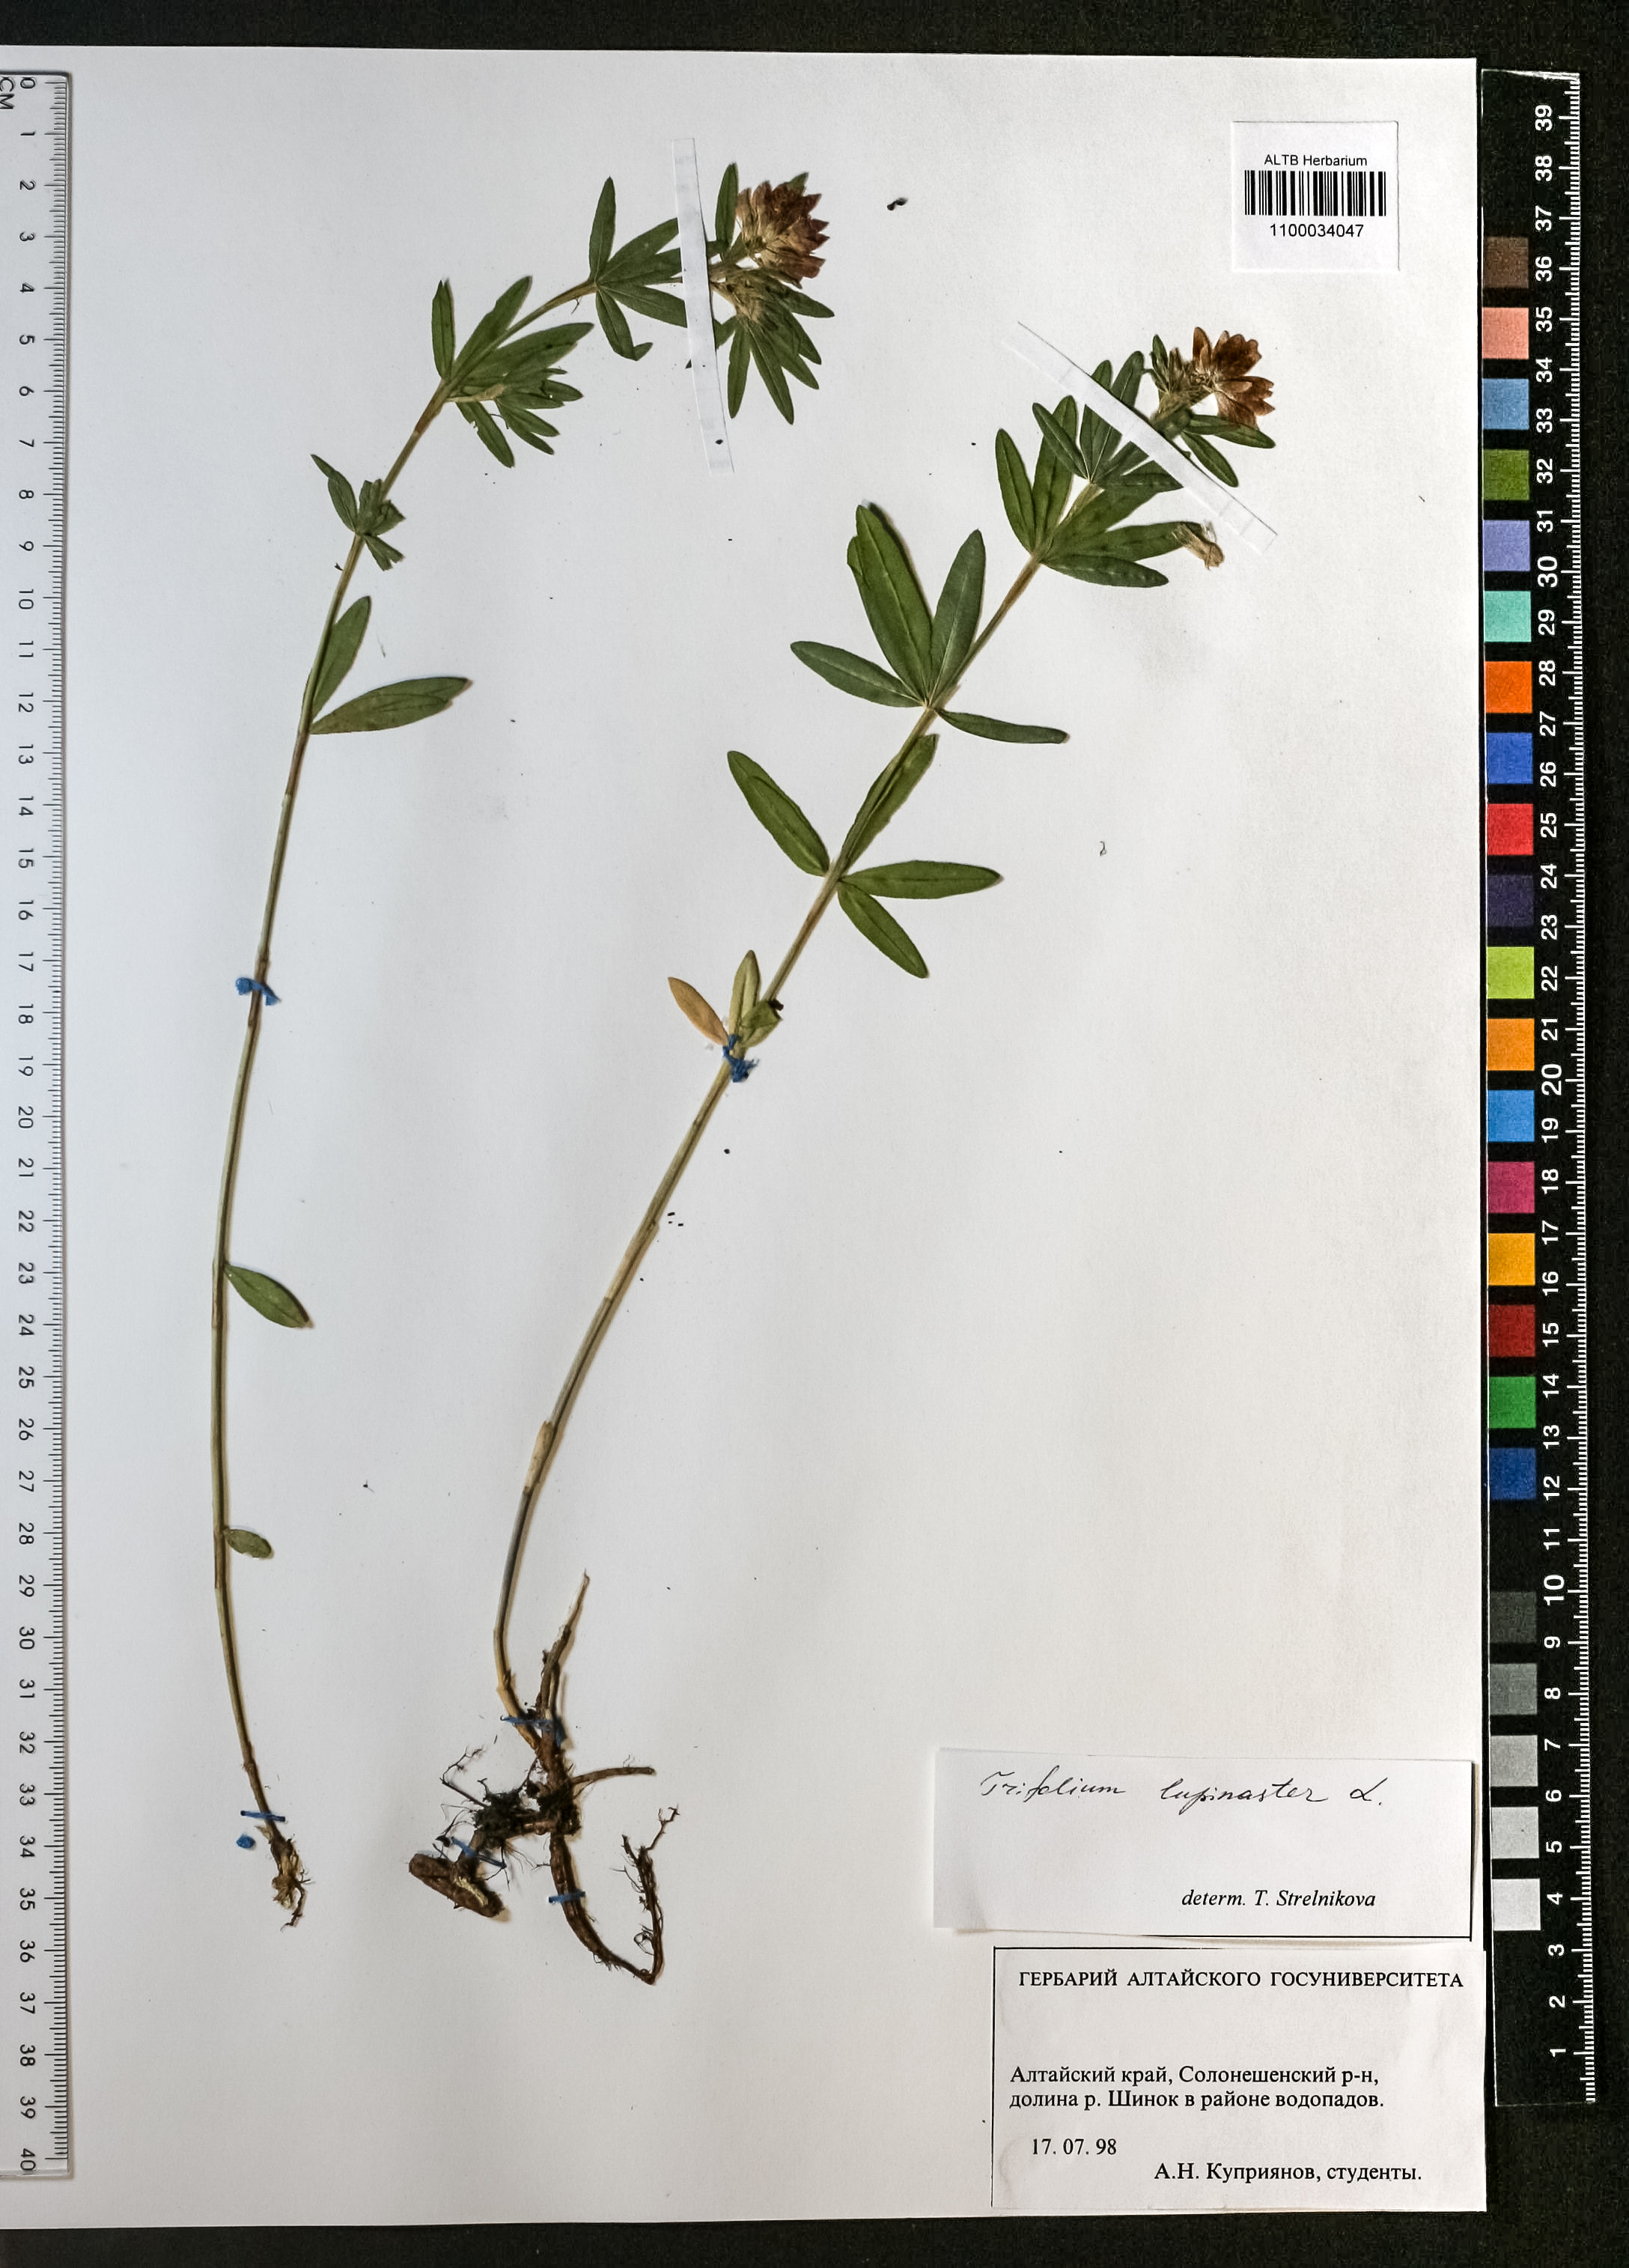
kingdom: Plantae
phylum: Tracheophyta
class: Magnoliopsida
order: Fabales
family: Fabaceae
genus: Trifolium
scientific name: Trifolium lupinaster
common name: Lupine clover
